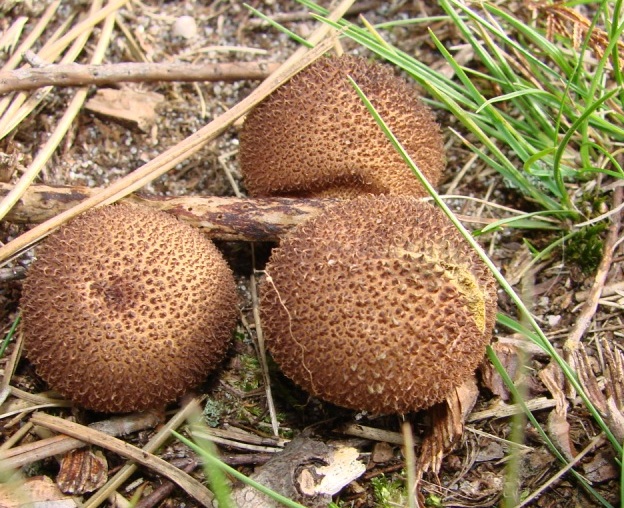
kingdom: Fungi
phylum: Basidiomycota
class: Agaricomycetes
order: Agaricales
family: Lycoperdaceae
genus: Lycoperdon
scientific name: Lycoperdon nigrescens
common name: sortagtig støvbold
